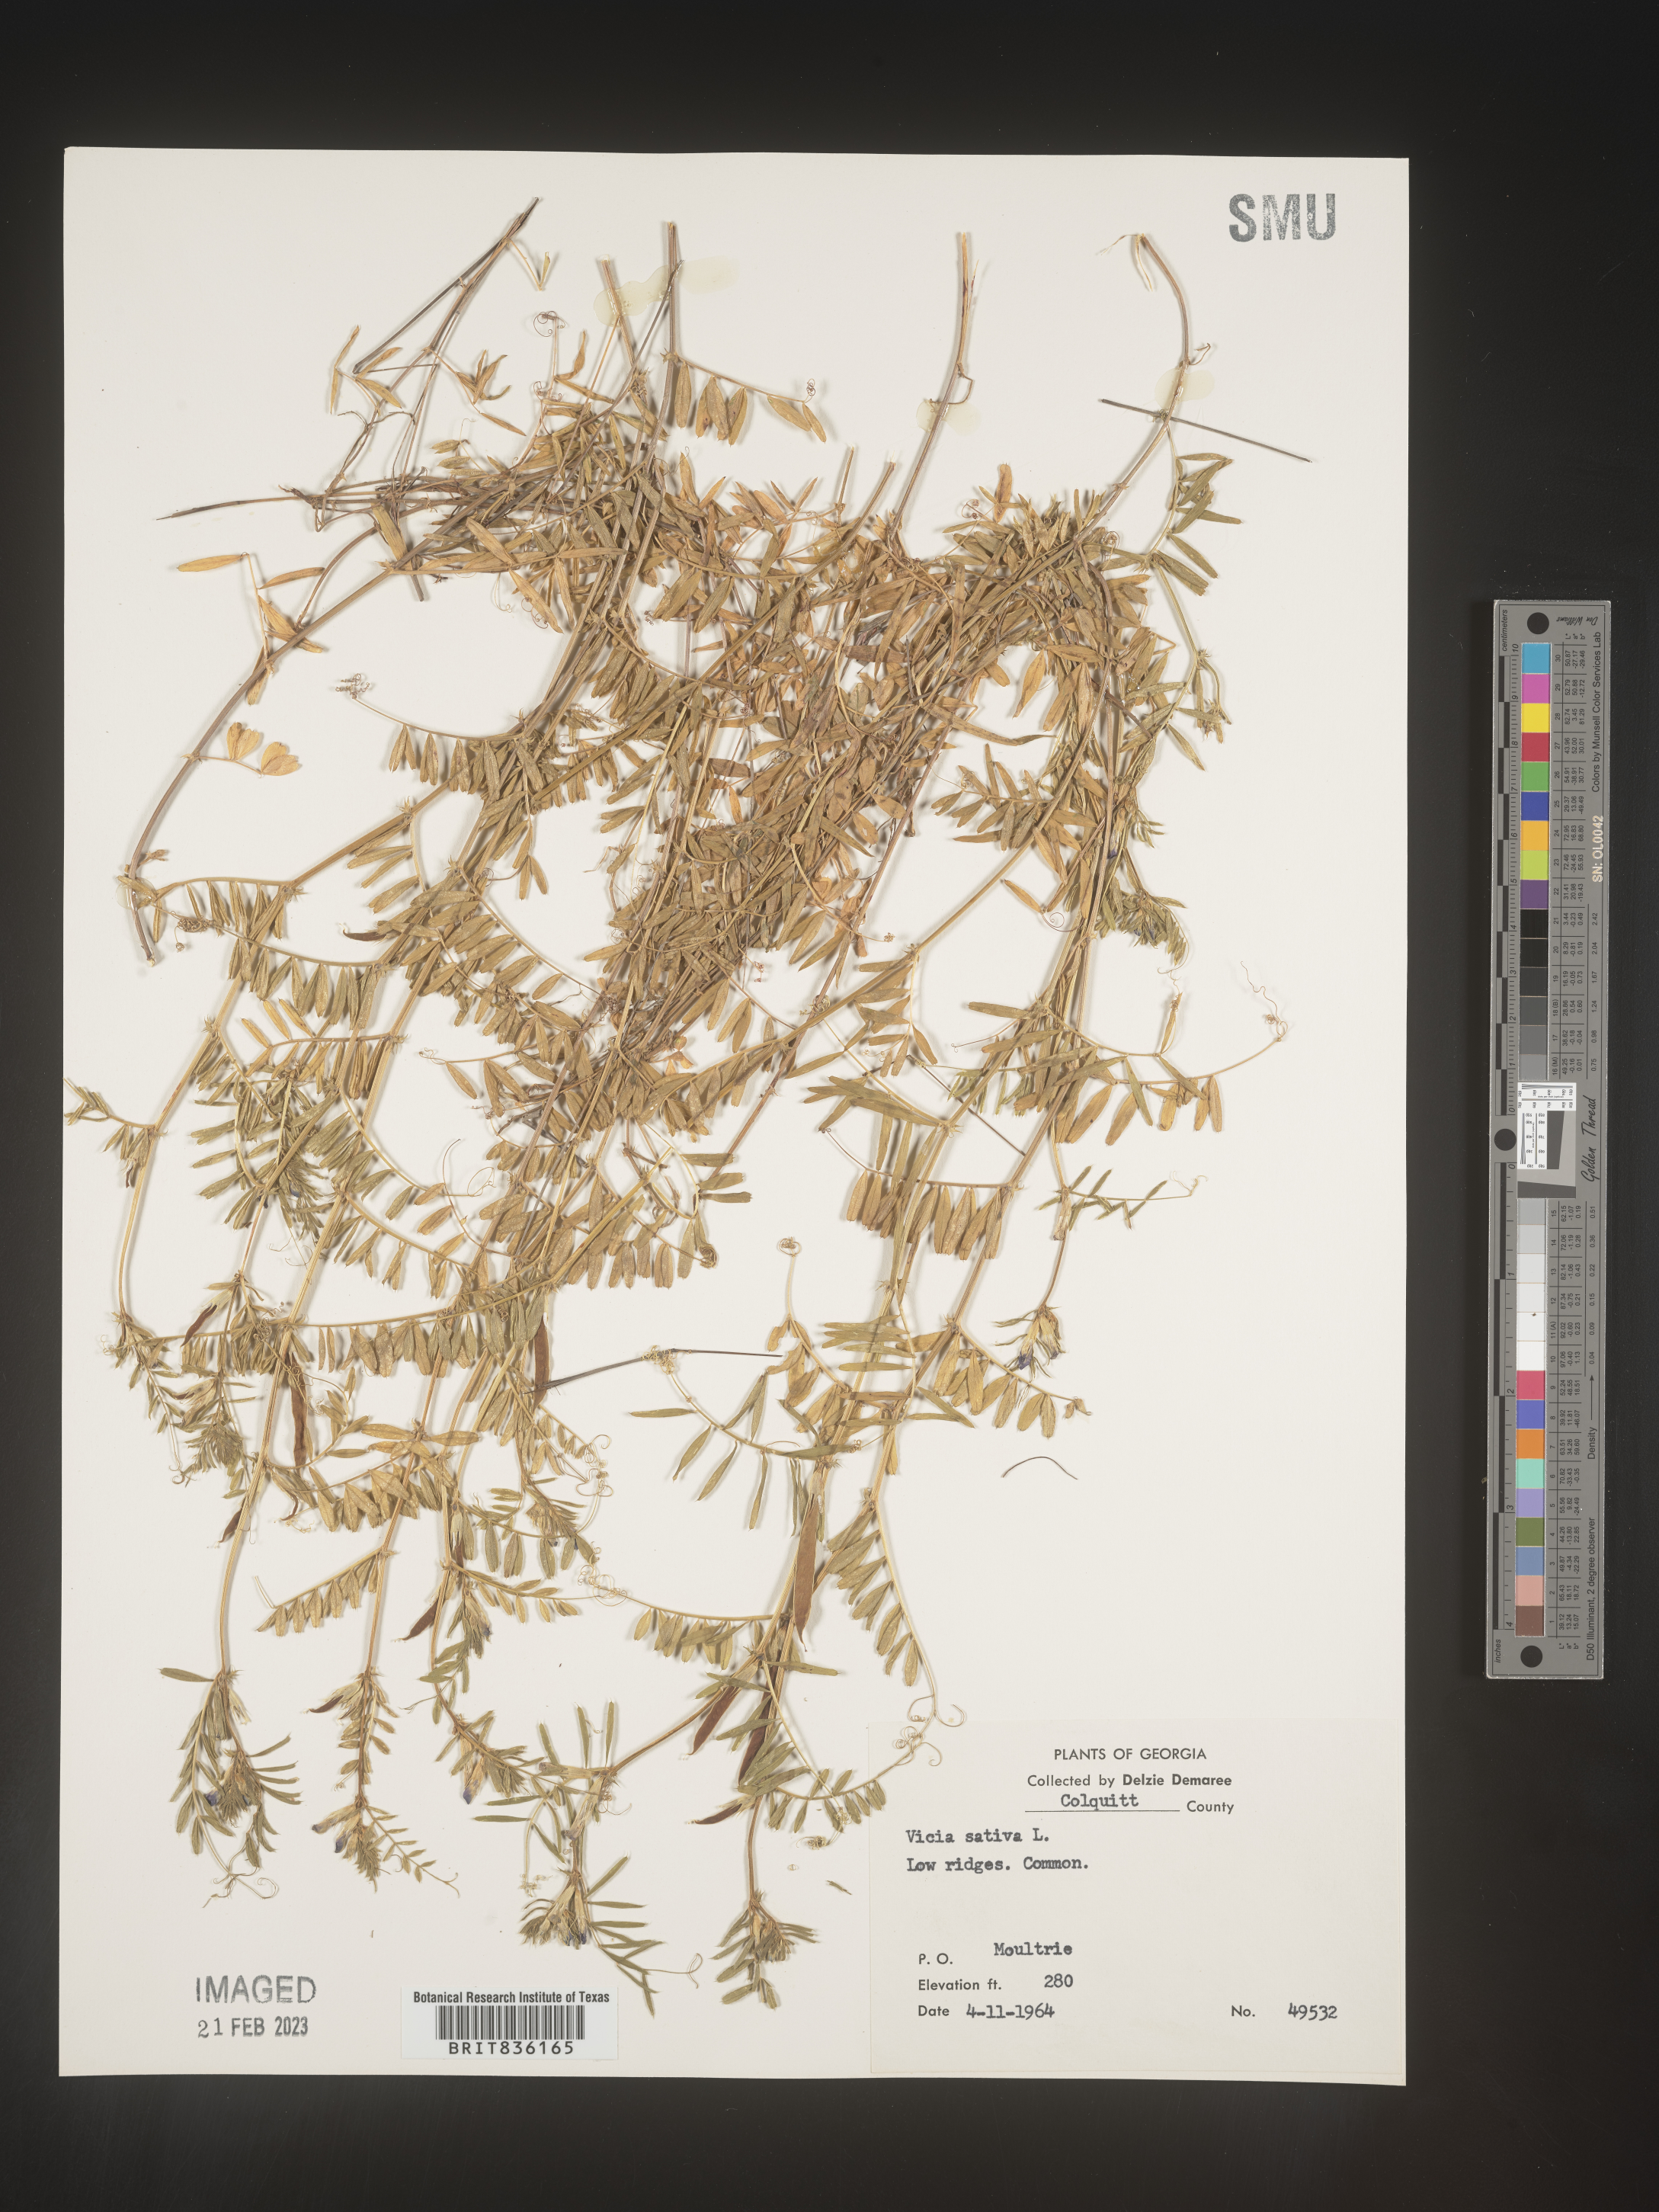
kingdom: Plantae
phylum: Tracheophyta
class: Magnoliopsida
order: Fabales
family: Fabaceae
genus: Vicia
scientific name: Vicia sativa
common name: Garden vetch
